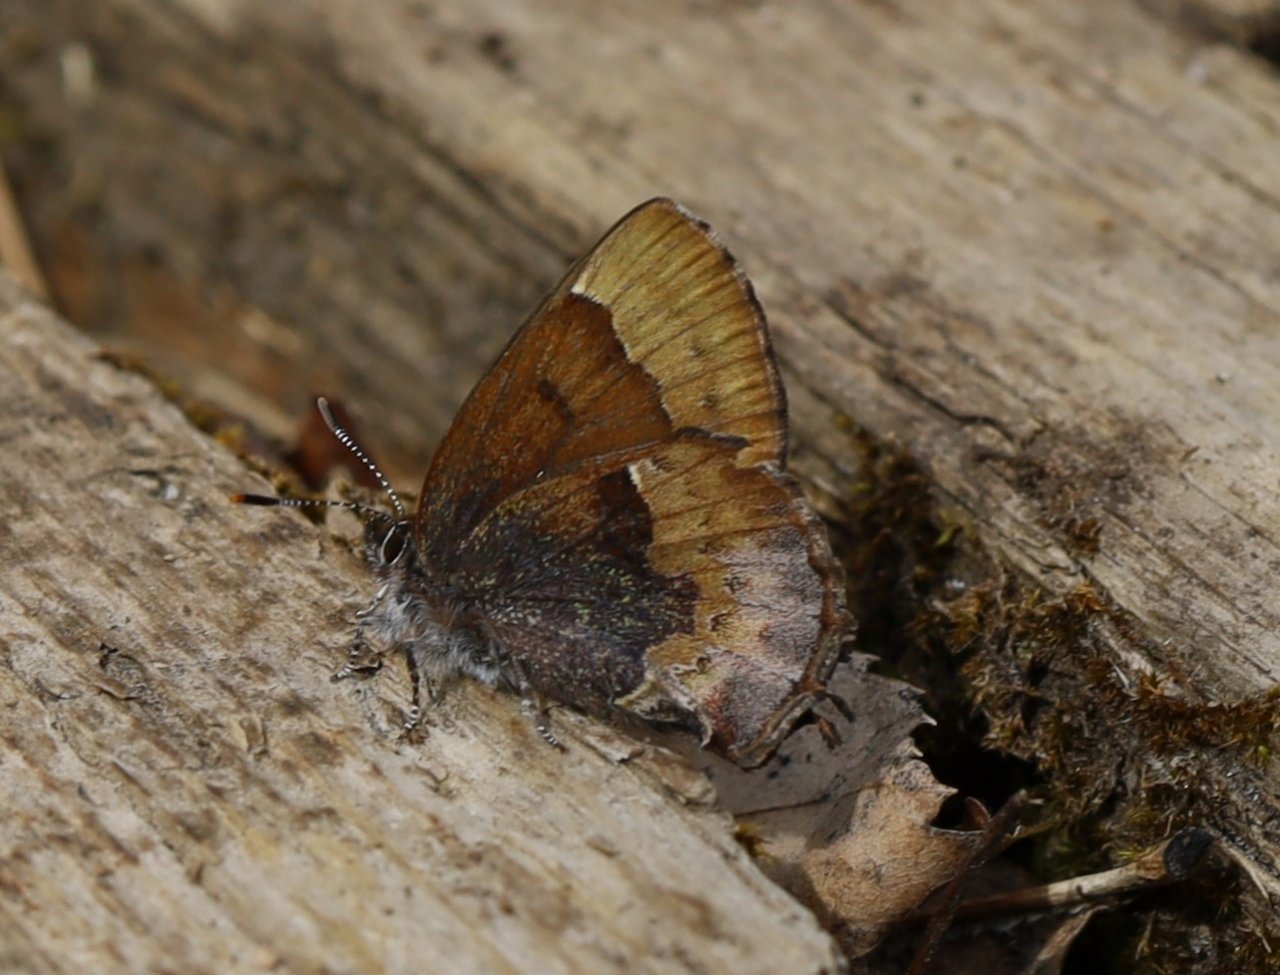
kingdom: Animalia
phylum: Arthropoda
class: Insecta
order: Lepidoptera
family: Lycaenidae
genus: Incisalia
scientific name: Incisalia henrici
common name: Henry's Elfin
